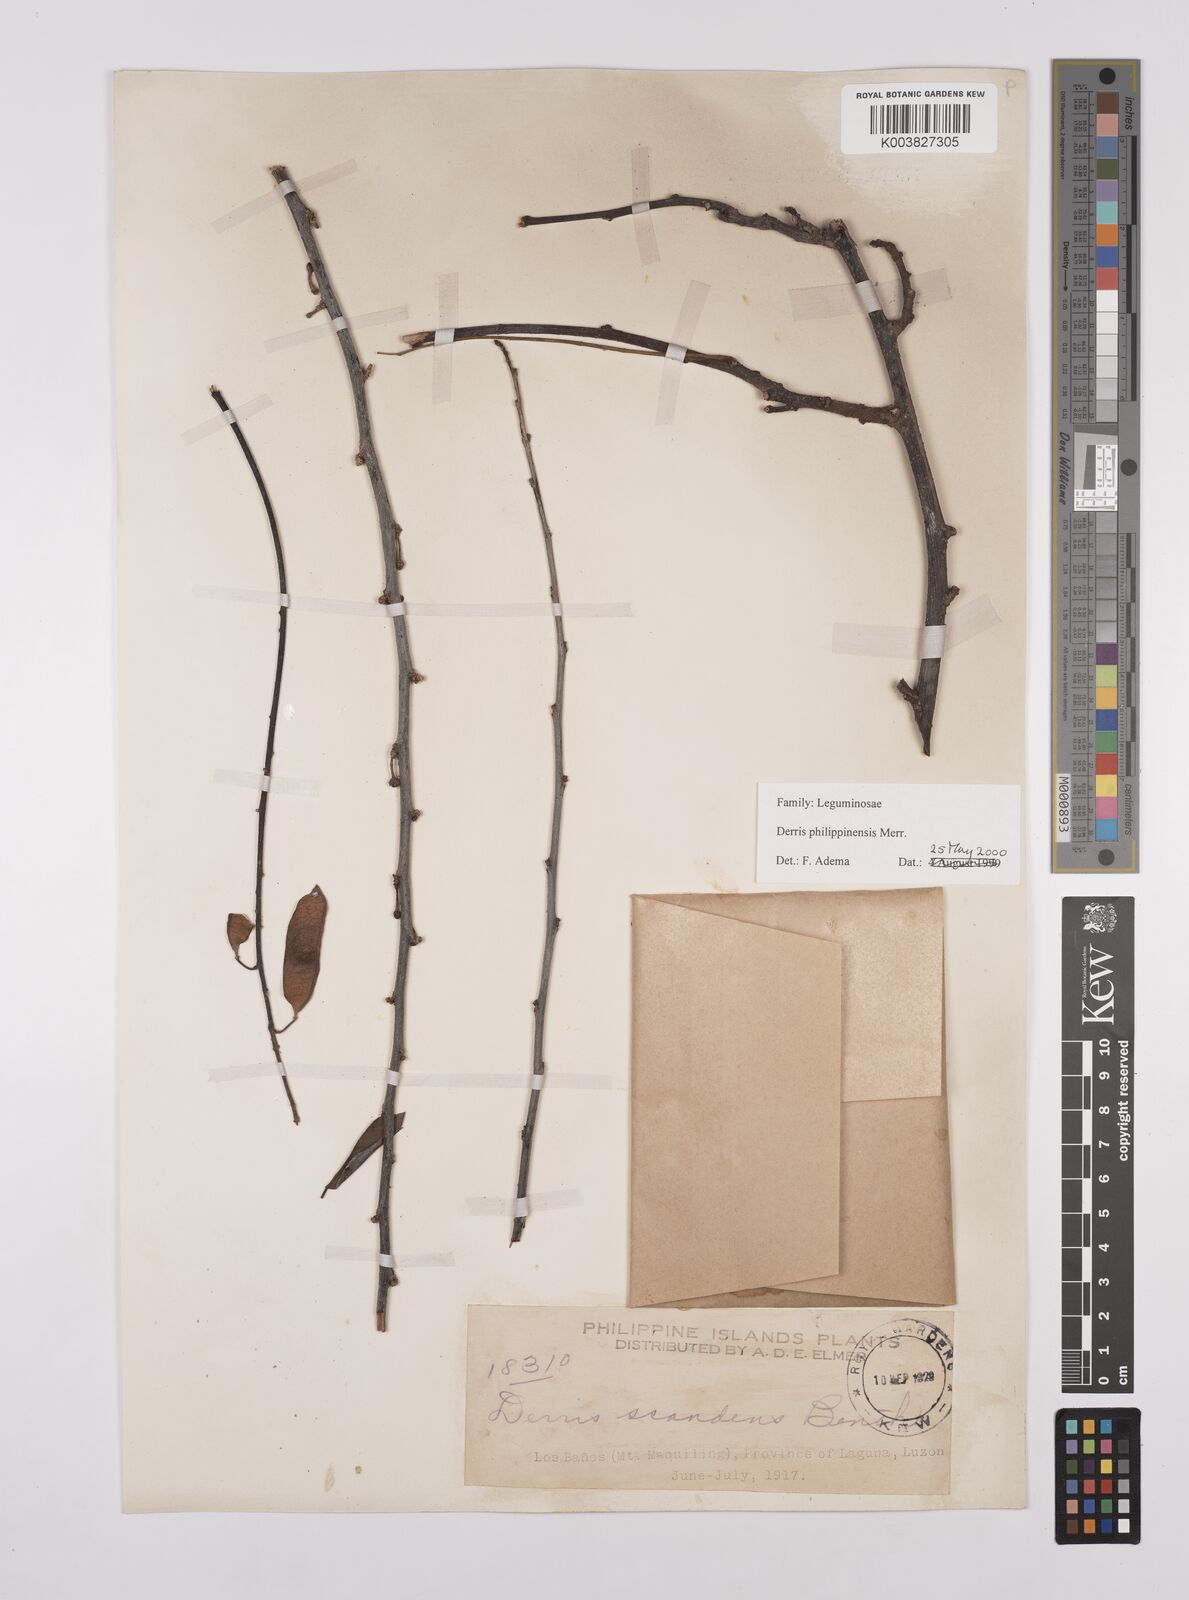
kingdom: Plantae
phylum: Tracheophyta
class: Magnoliopsida
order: Fabales
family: Fabaceae
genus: Brachypterum
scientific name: Brachypterum philippinense
